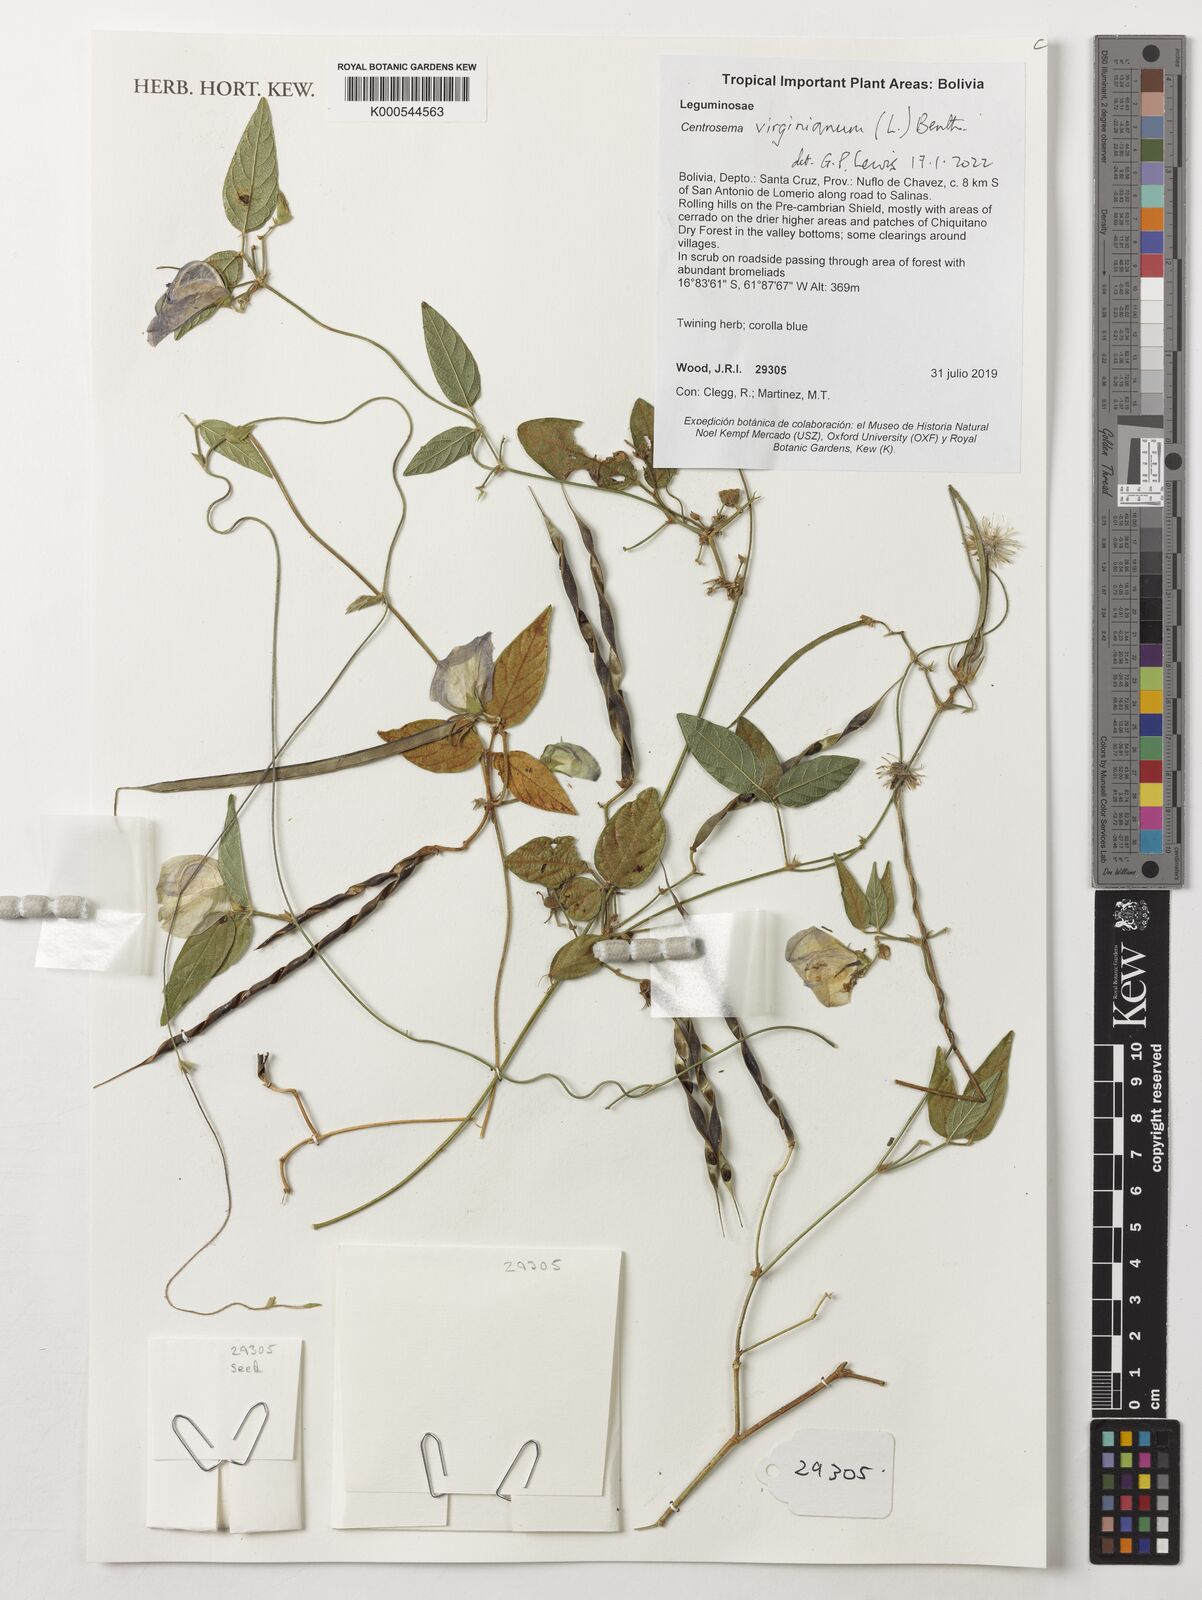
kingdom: Plantae
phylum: Tracheophyta
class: Magnoliopsida
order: Fabales
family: Fabaceae
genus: Centrosema
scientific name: Centrosema virginianum
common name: Butterfly-pea
